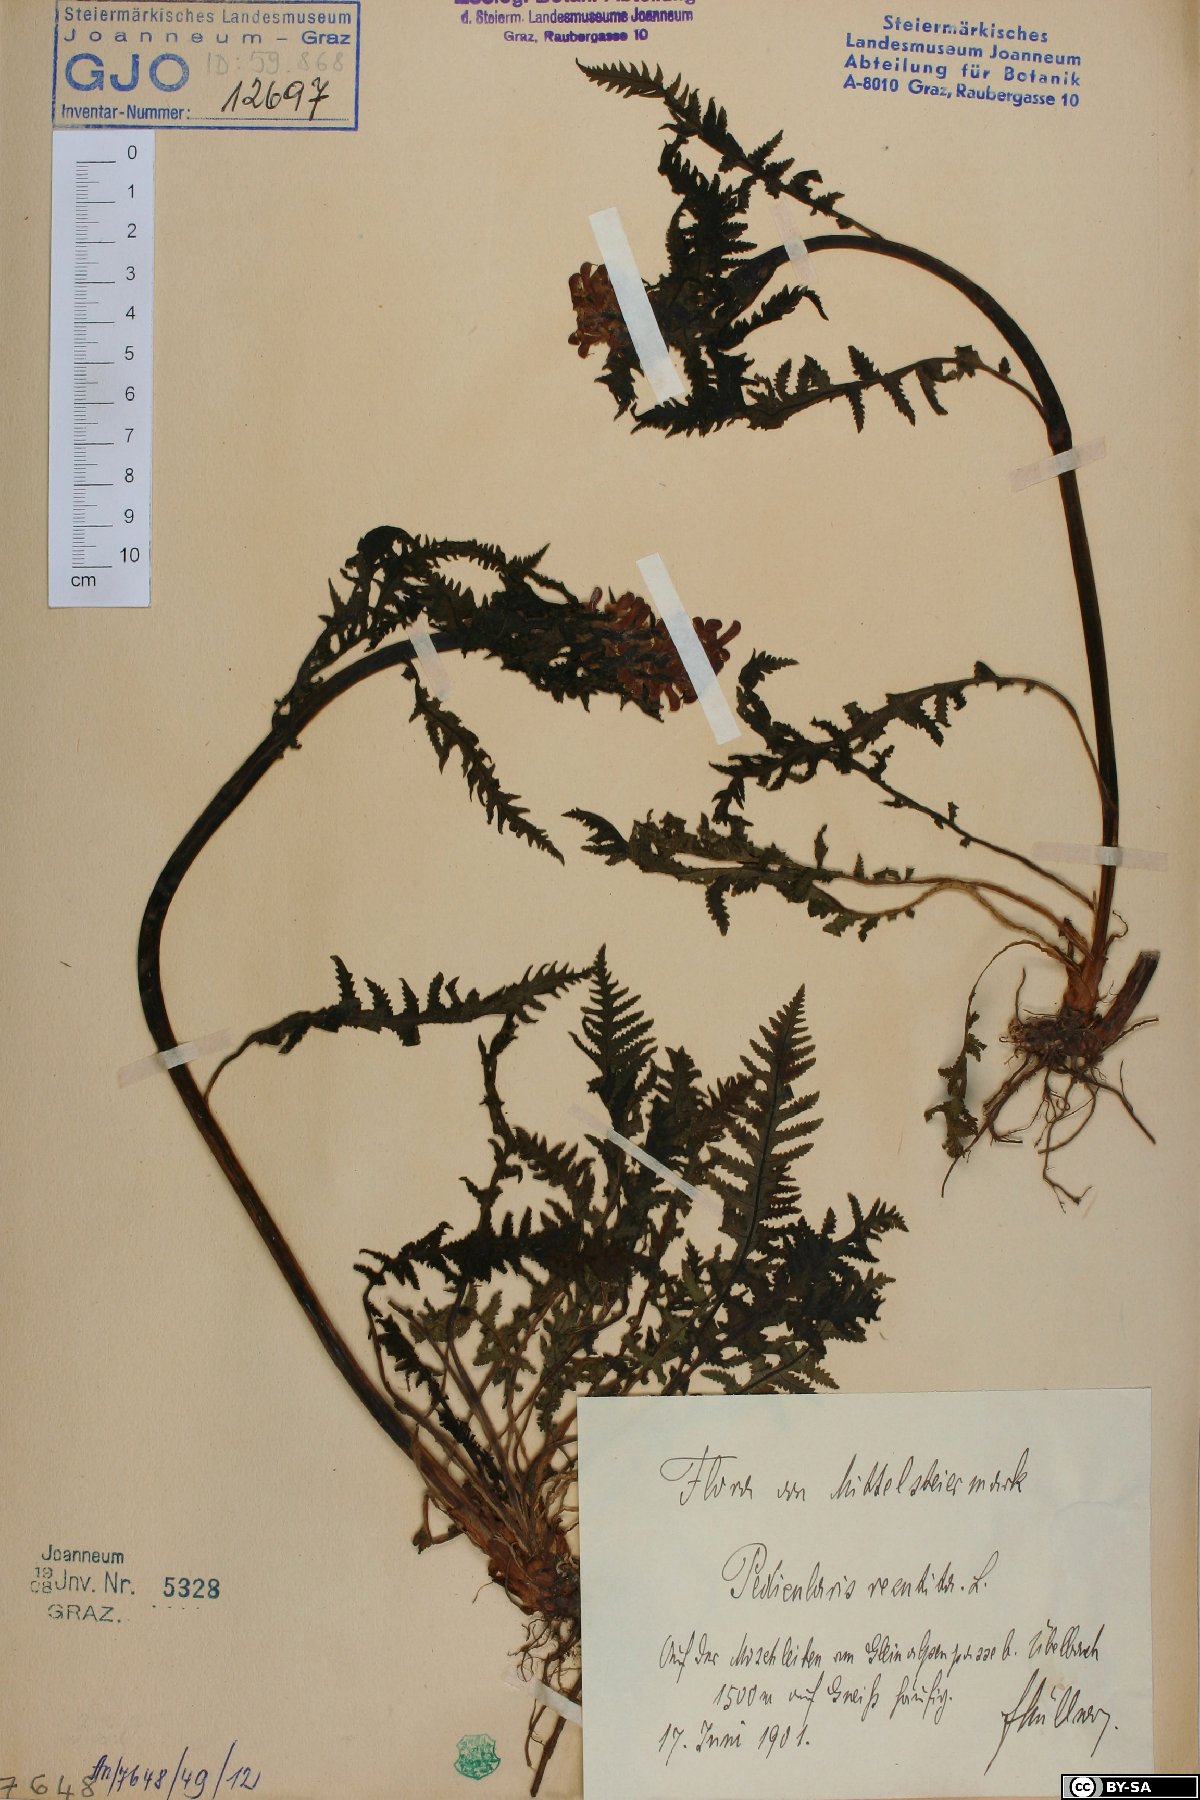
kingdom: Plantae
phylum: Tracheophyta
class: Magnoliopsida
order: Lamiales
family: Orobanchaceae
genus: Pedicularis
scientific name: Pedicularis recutita
